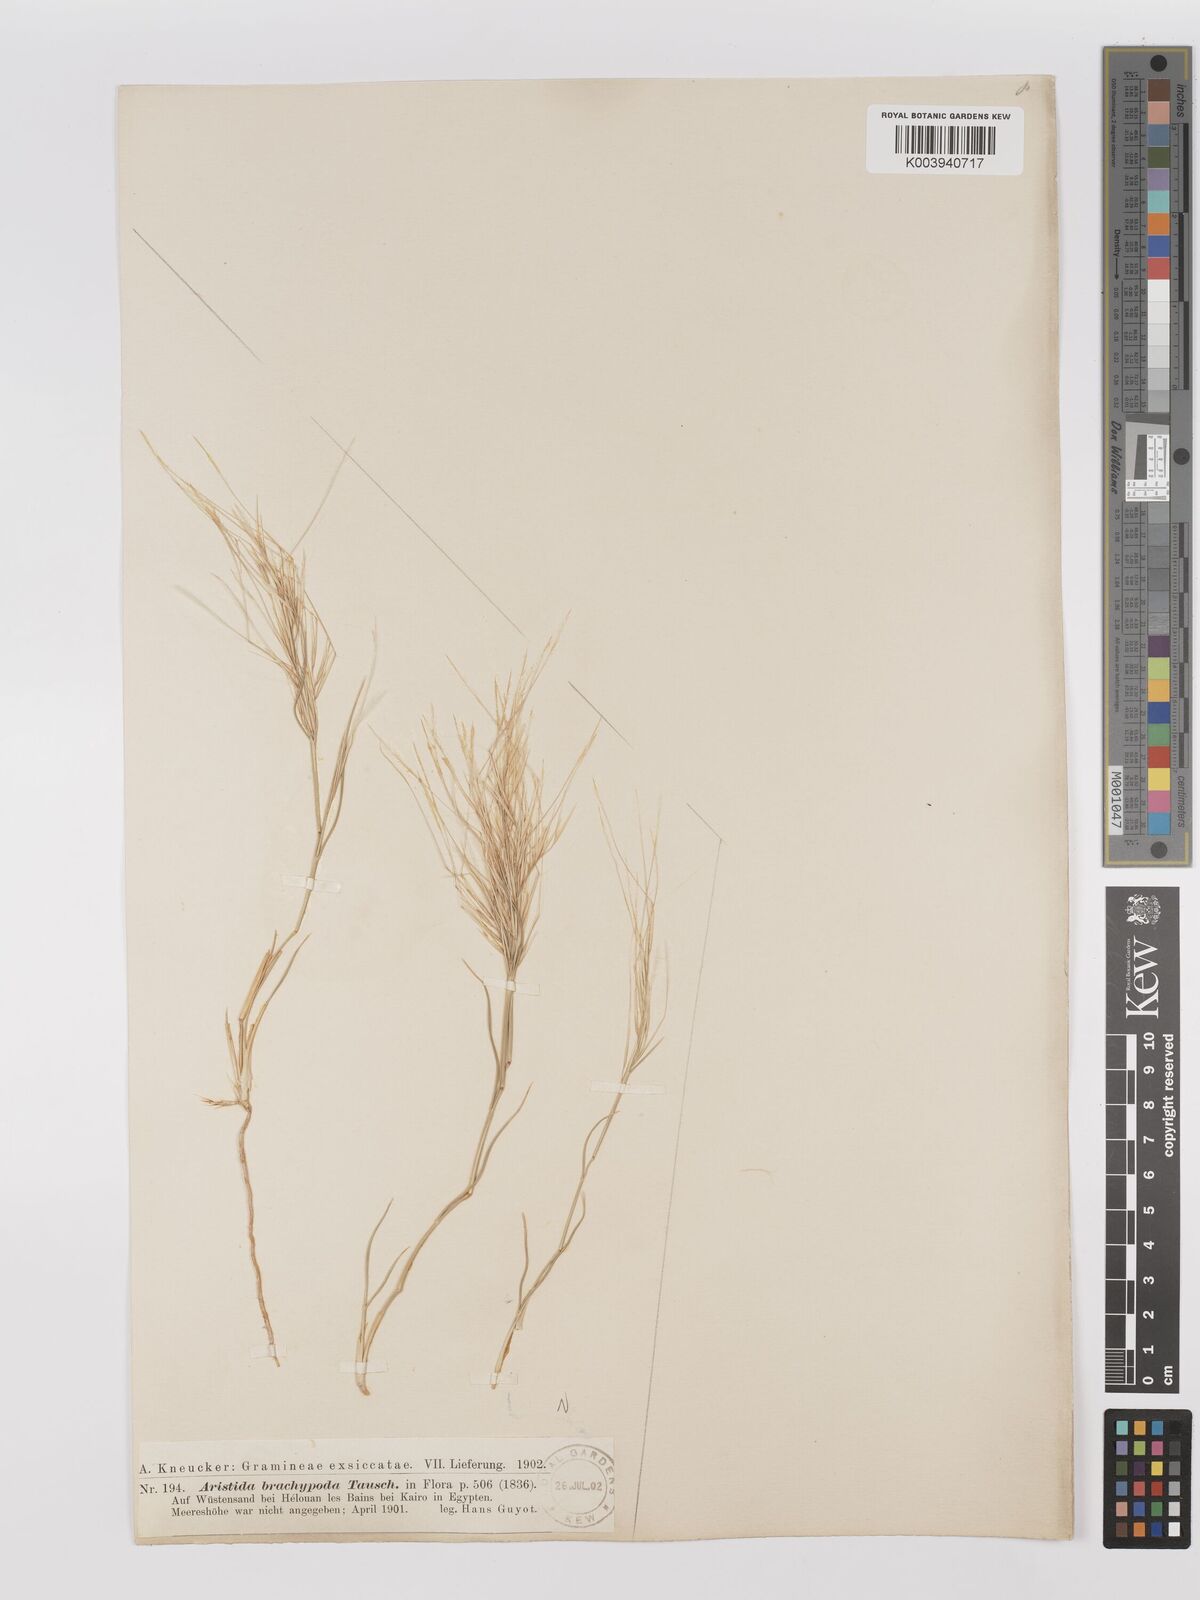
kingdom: Plantae
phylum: Tracheophyta
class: Liliopsida
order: Poales
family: Poaceae
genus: Stipagrostis
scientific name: Stipagrostis plumosa
